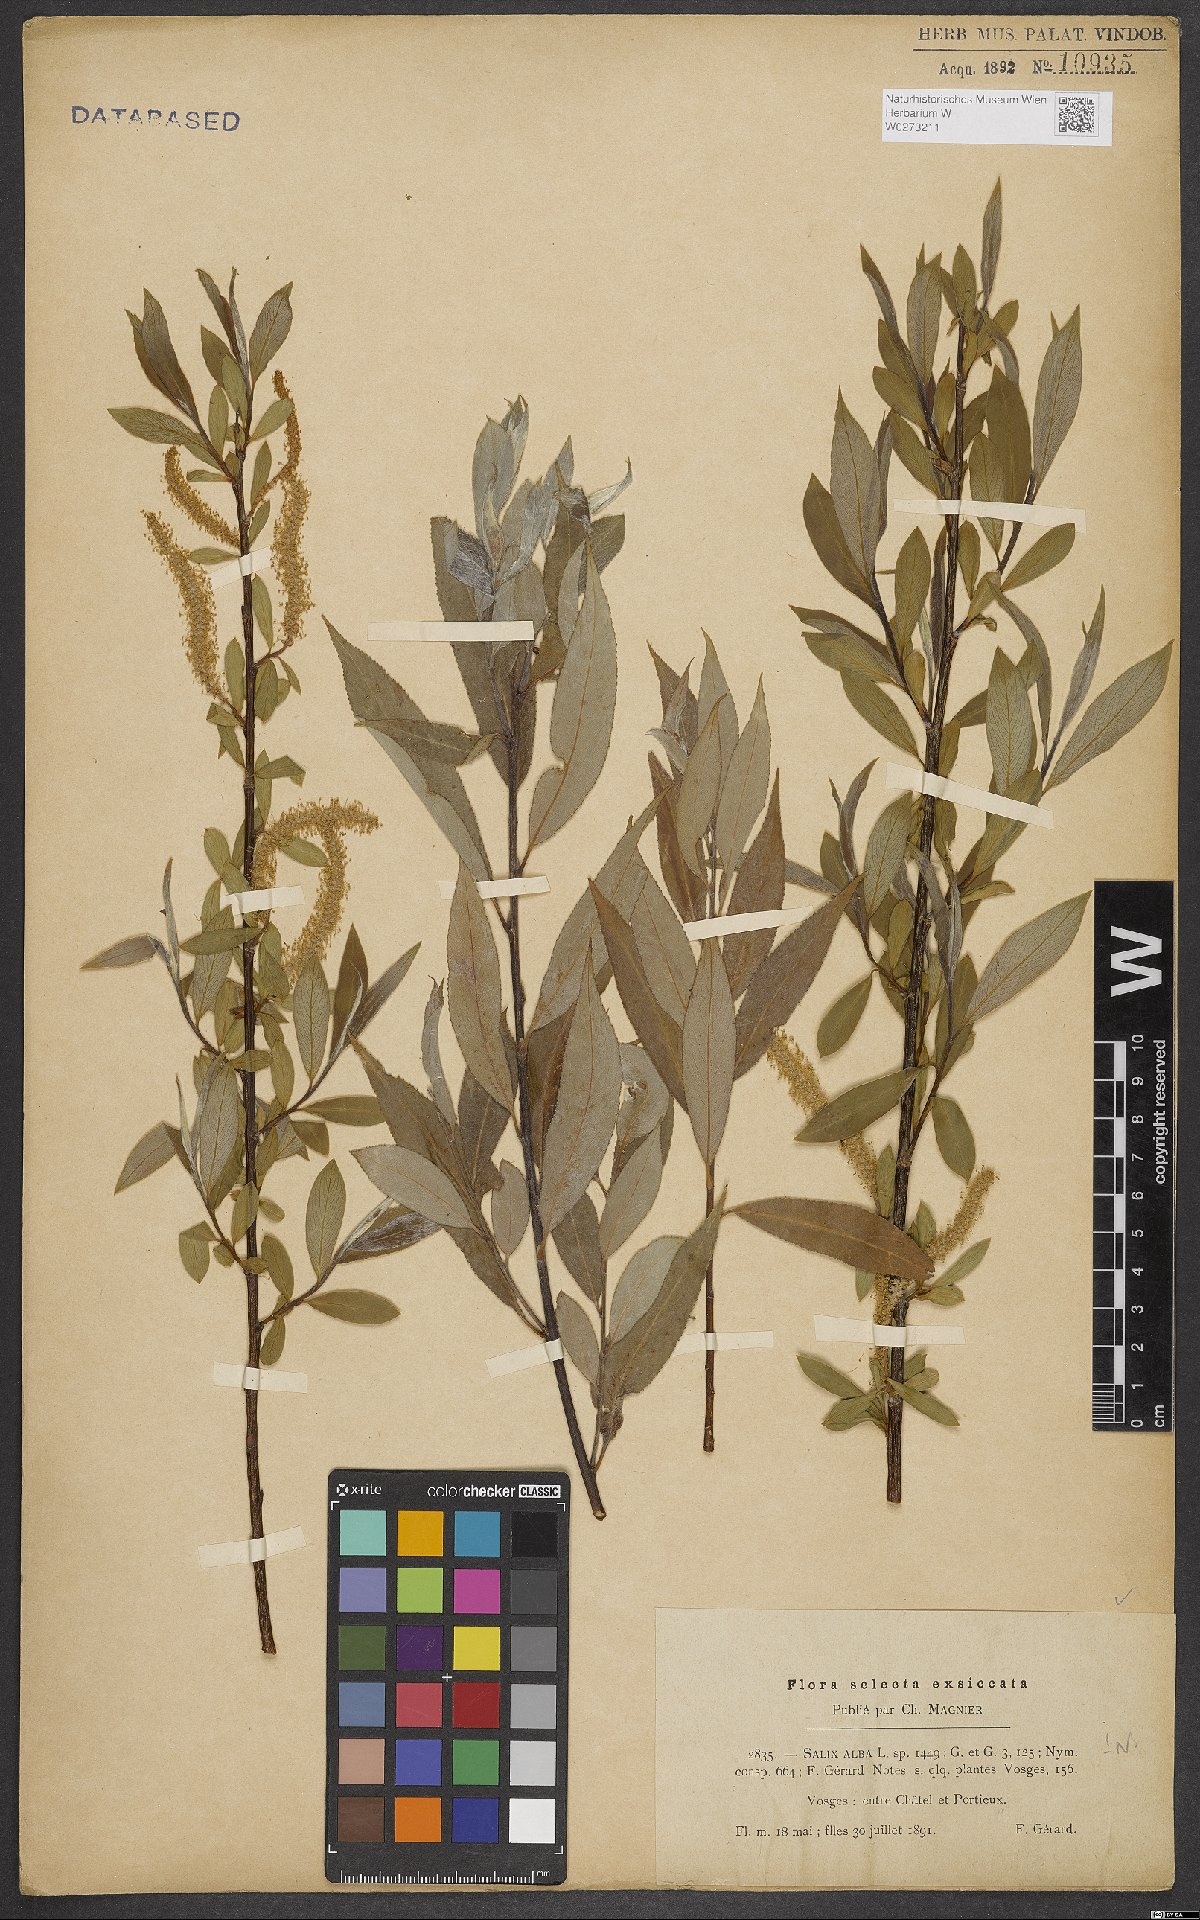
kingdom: Plantae
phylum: Tracheophyta
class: Magnoliopsida
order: Malpighiales
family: Salicaceae
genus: Salix
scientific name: Salix alba
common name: White willow
